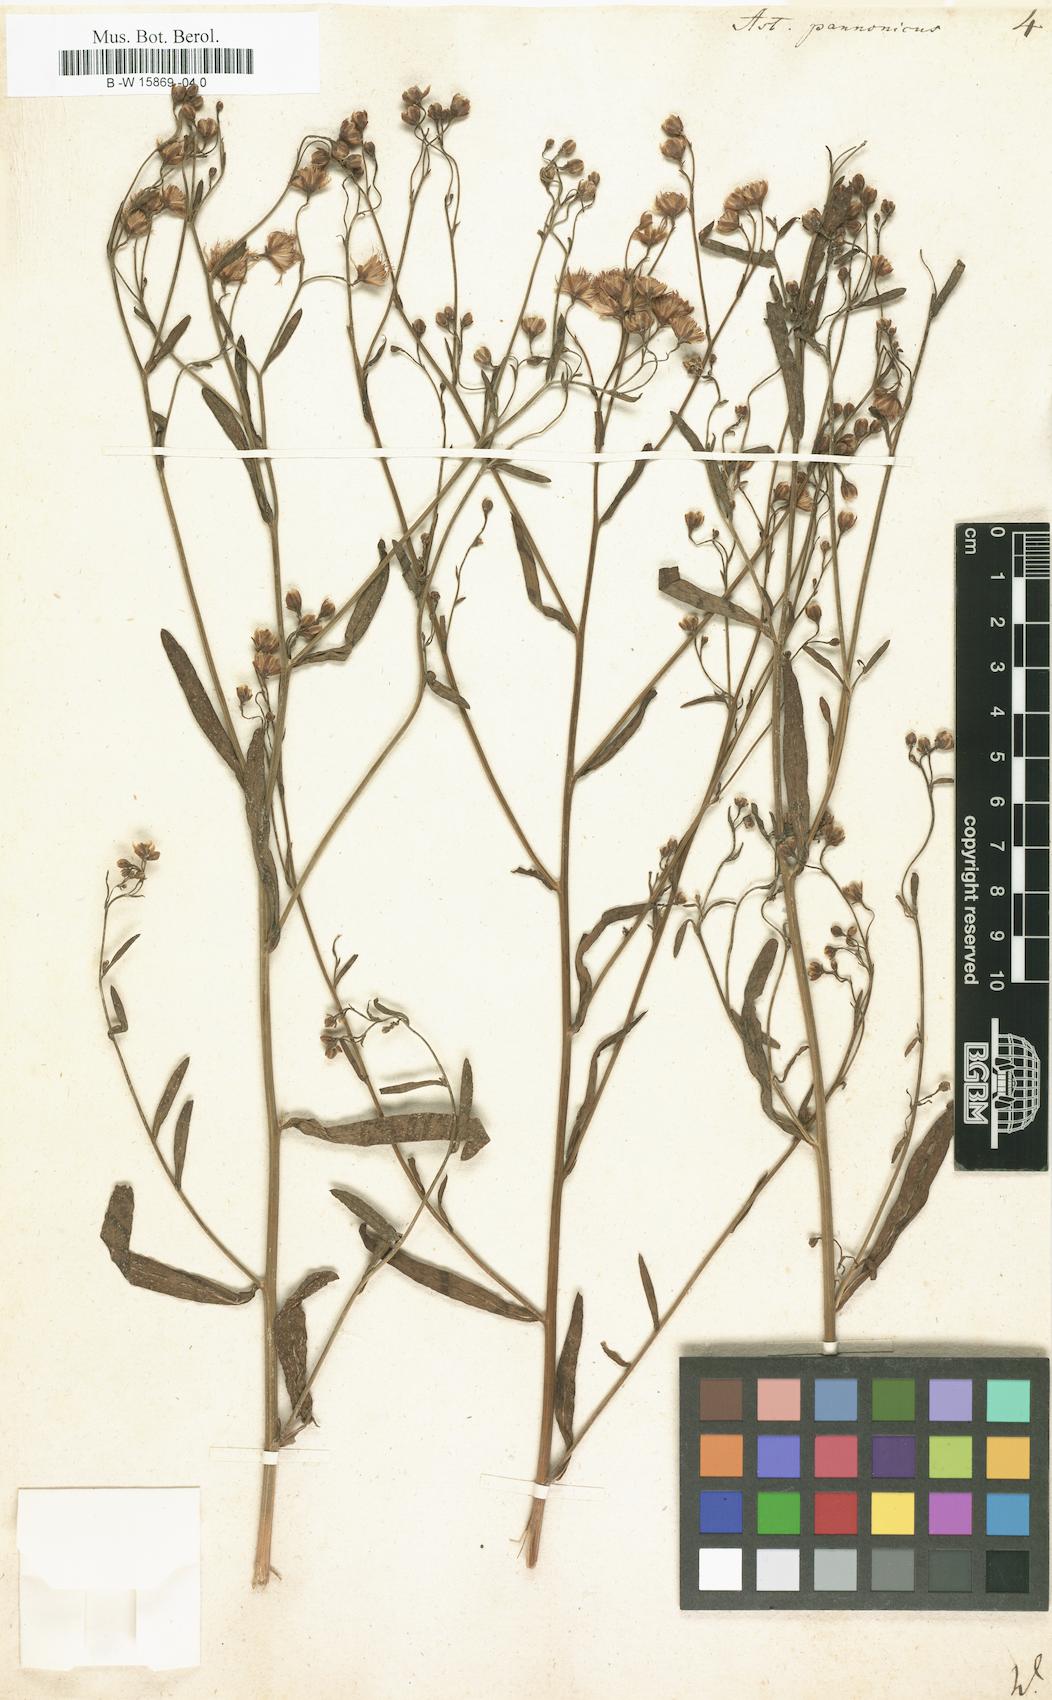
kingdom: Plantae
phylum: Tracheophyta
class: Magnoliopsida
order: Asterales
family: Asteraceae
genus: Tripolium
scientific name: Tripolium pannonicum
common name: Sea aster
